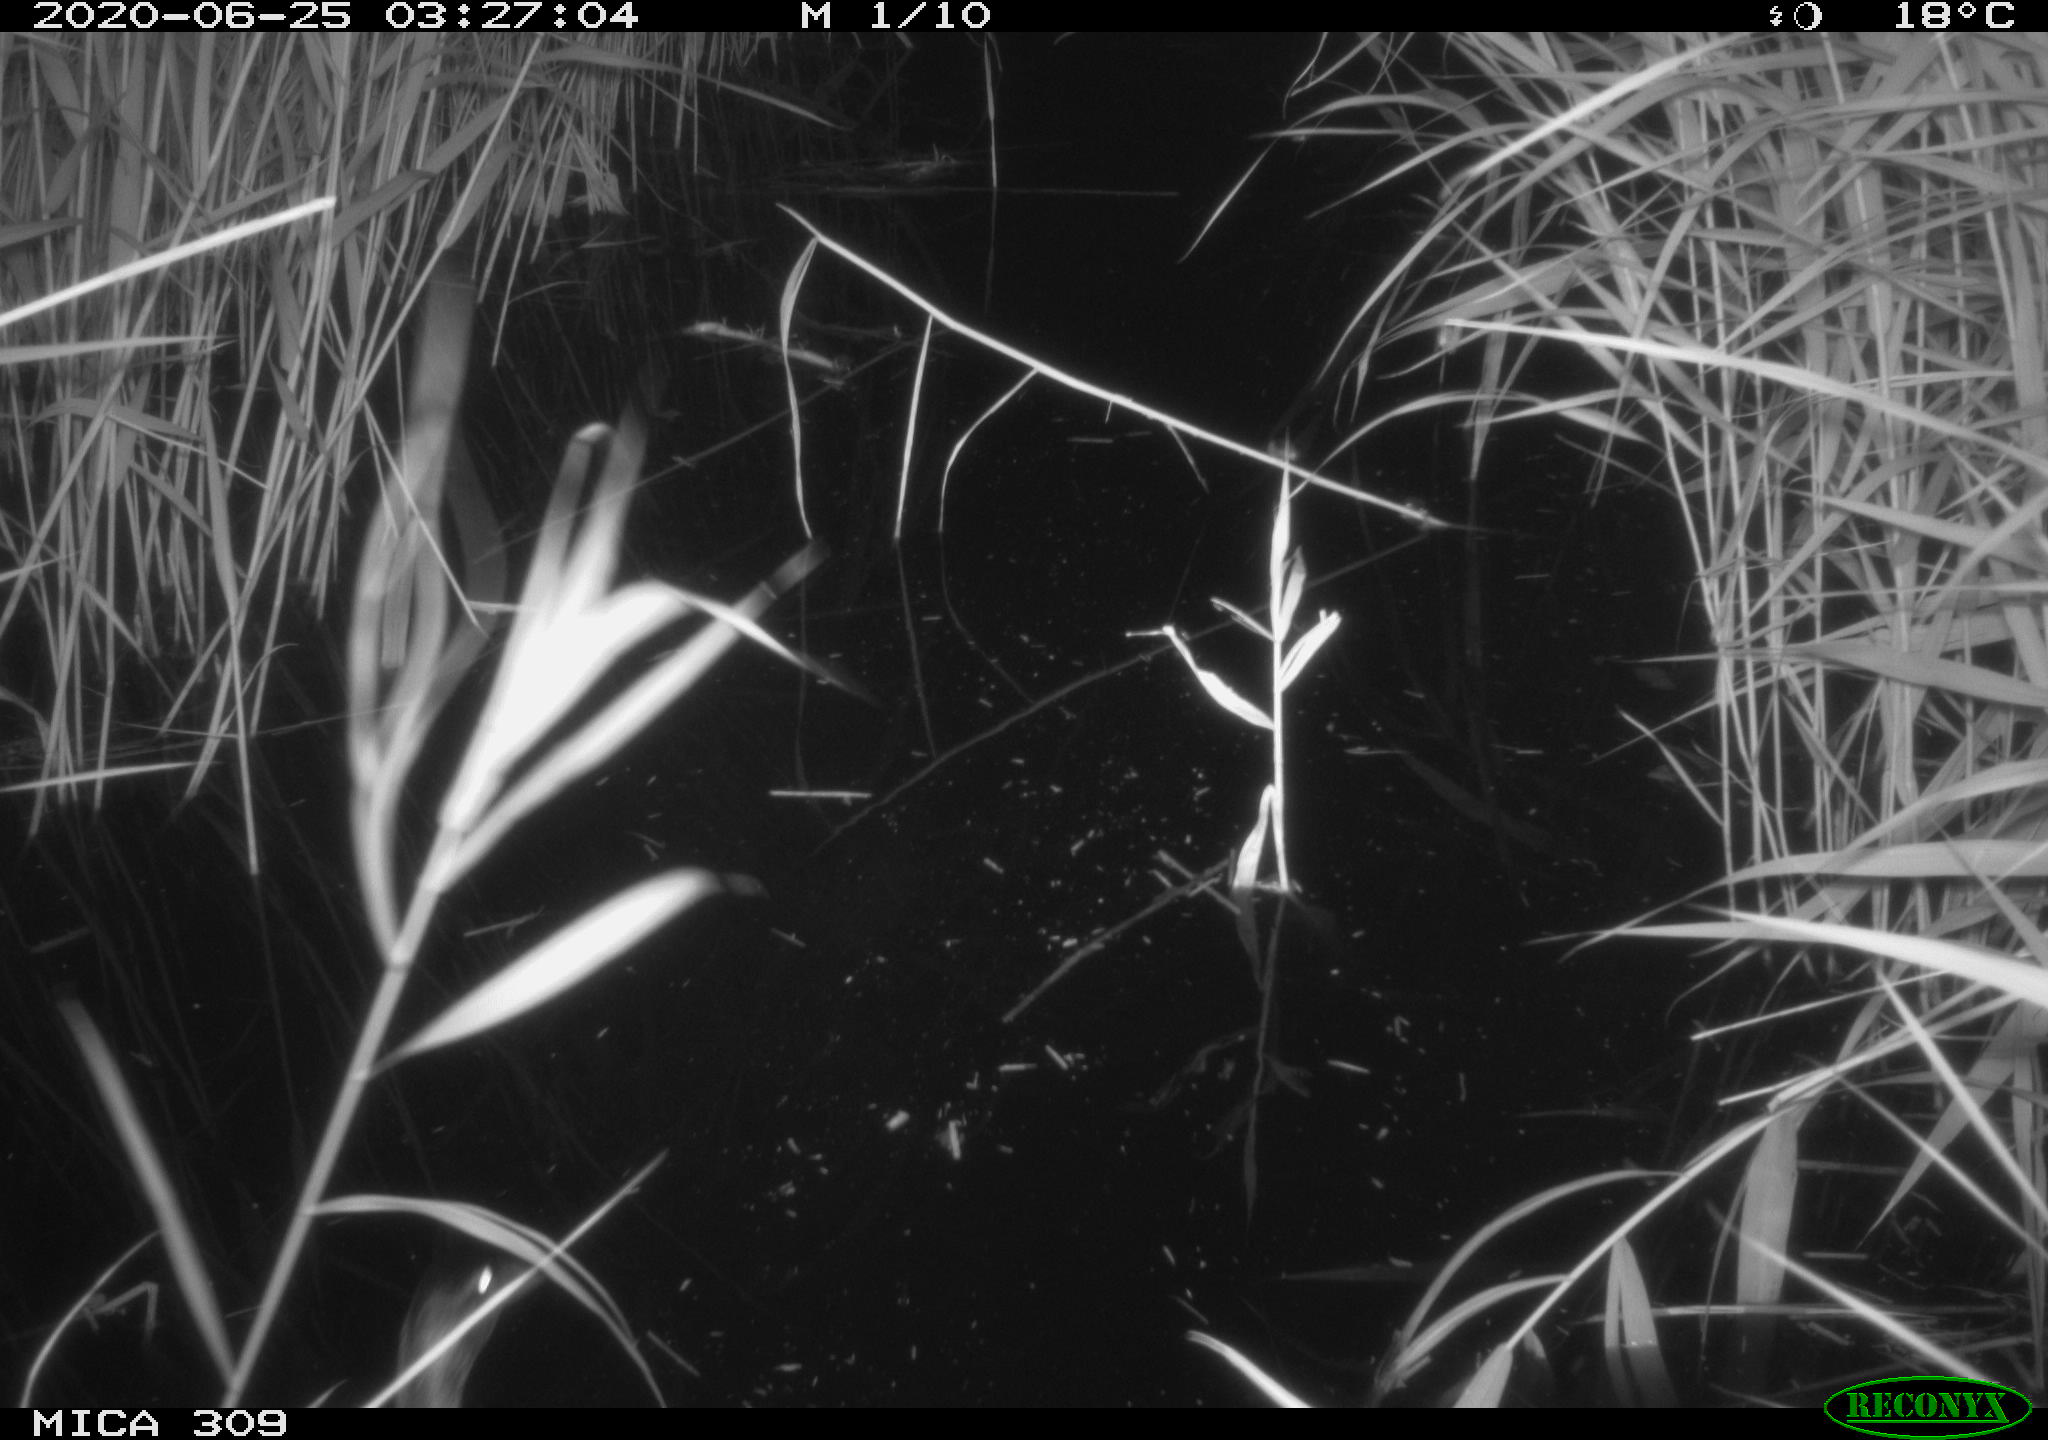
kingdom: Animalia
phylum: Chordata
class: Aves
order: Anseriformes
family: Anatidae
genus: Anas
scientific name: Anas platyrhynchos
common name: Mallard
